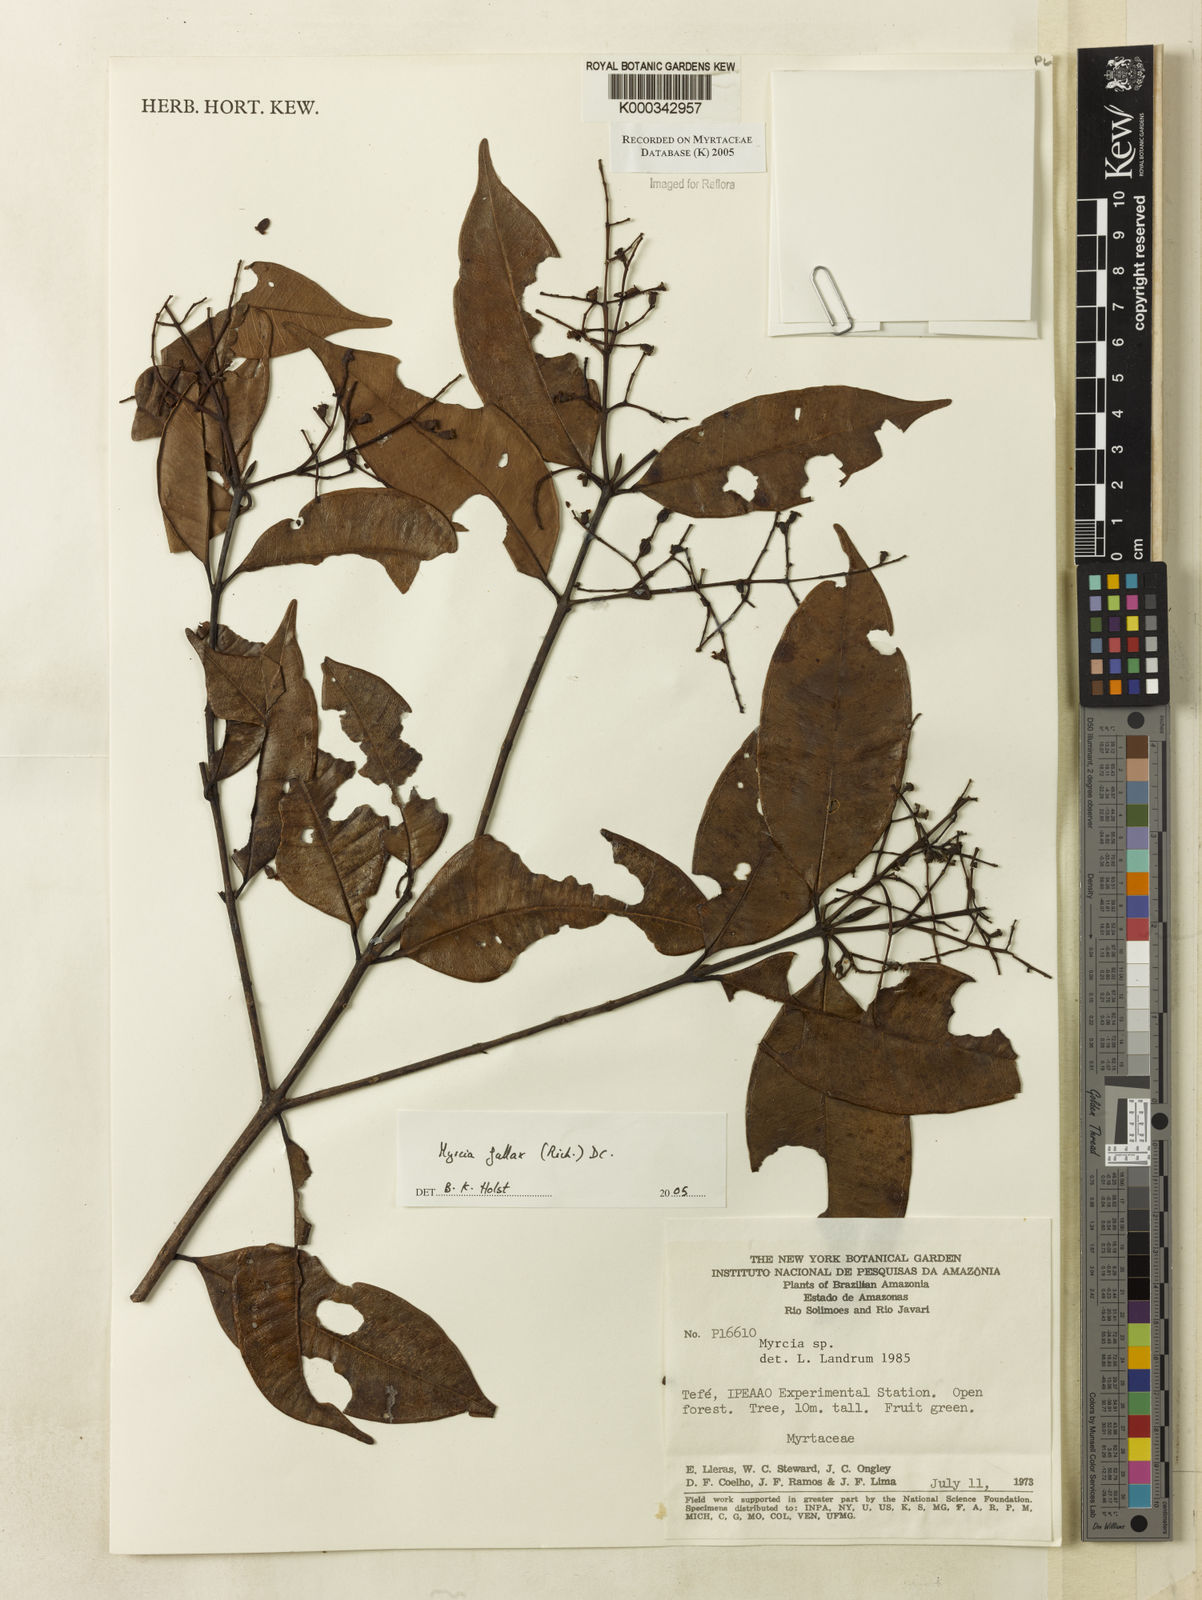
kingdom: Plantae
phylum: Tracheophyta
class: Magnoliopsida
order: Myrtales
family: Myrtaceae
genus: Myrcia
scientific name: Myrcia splendens
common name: Surinam cherry
